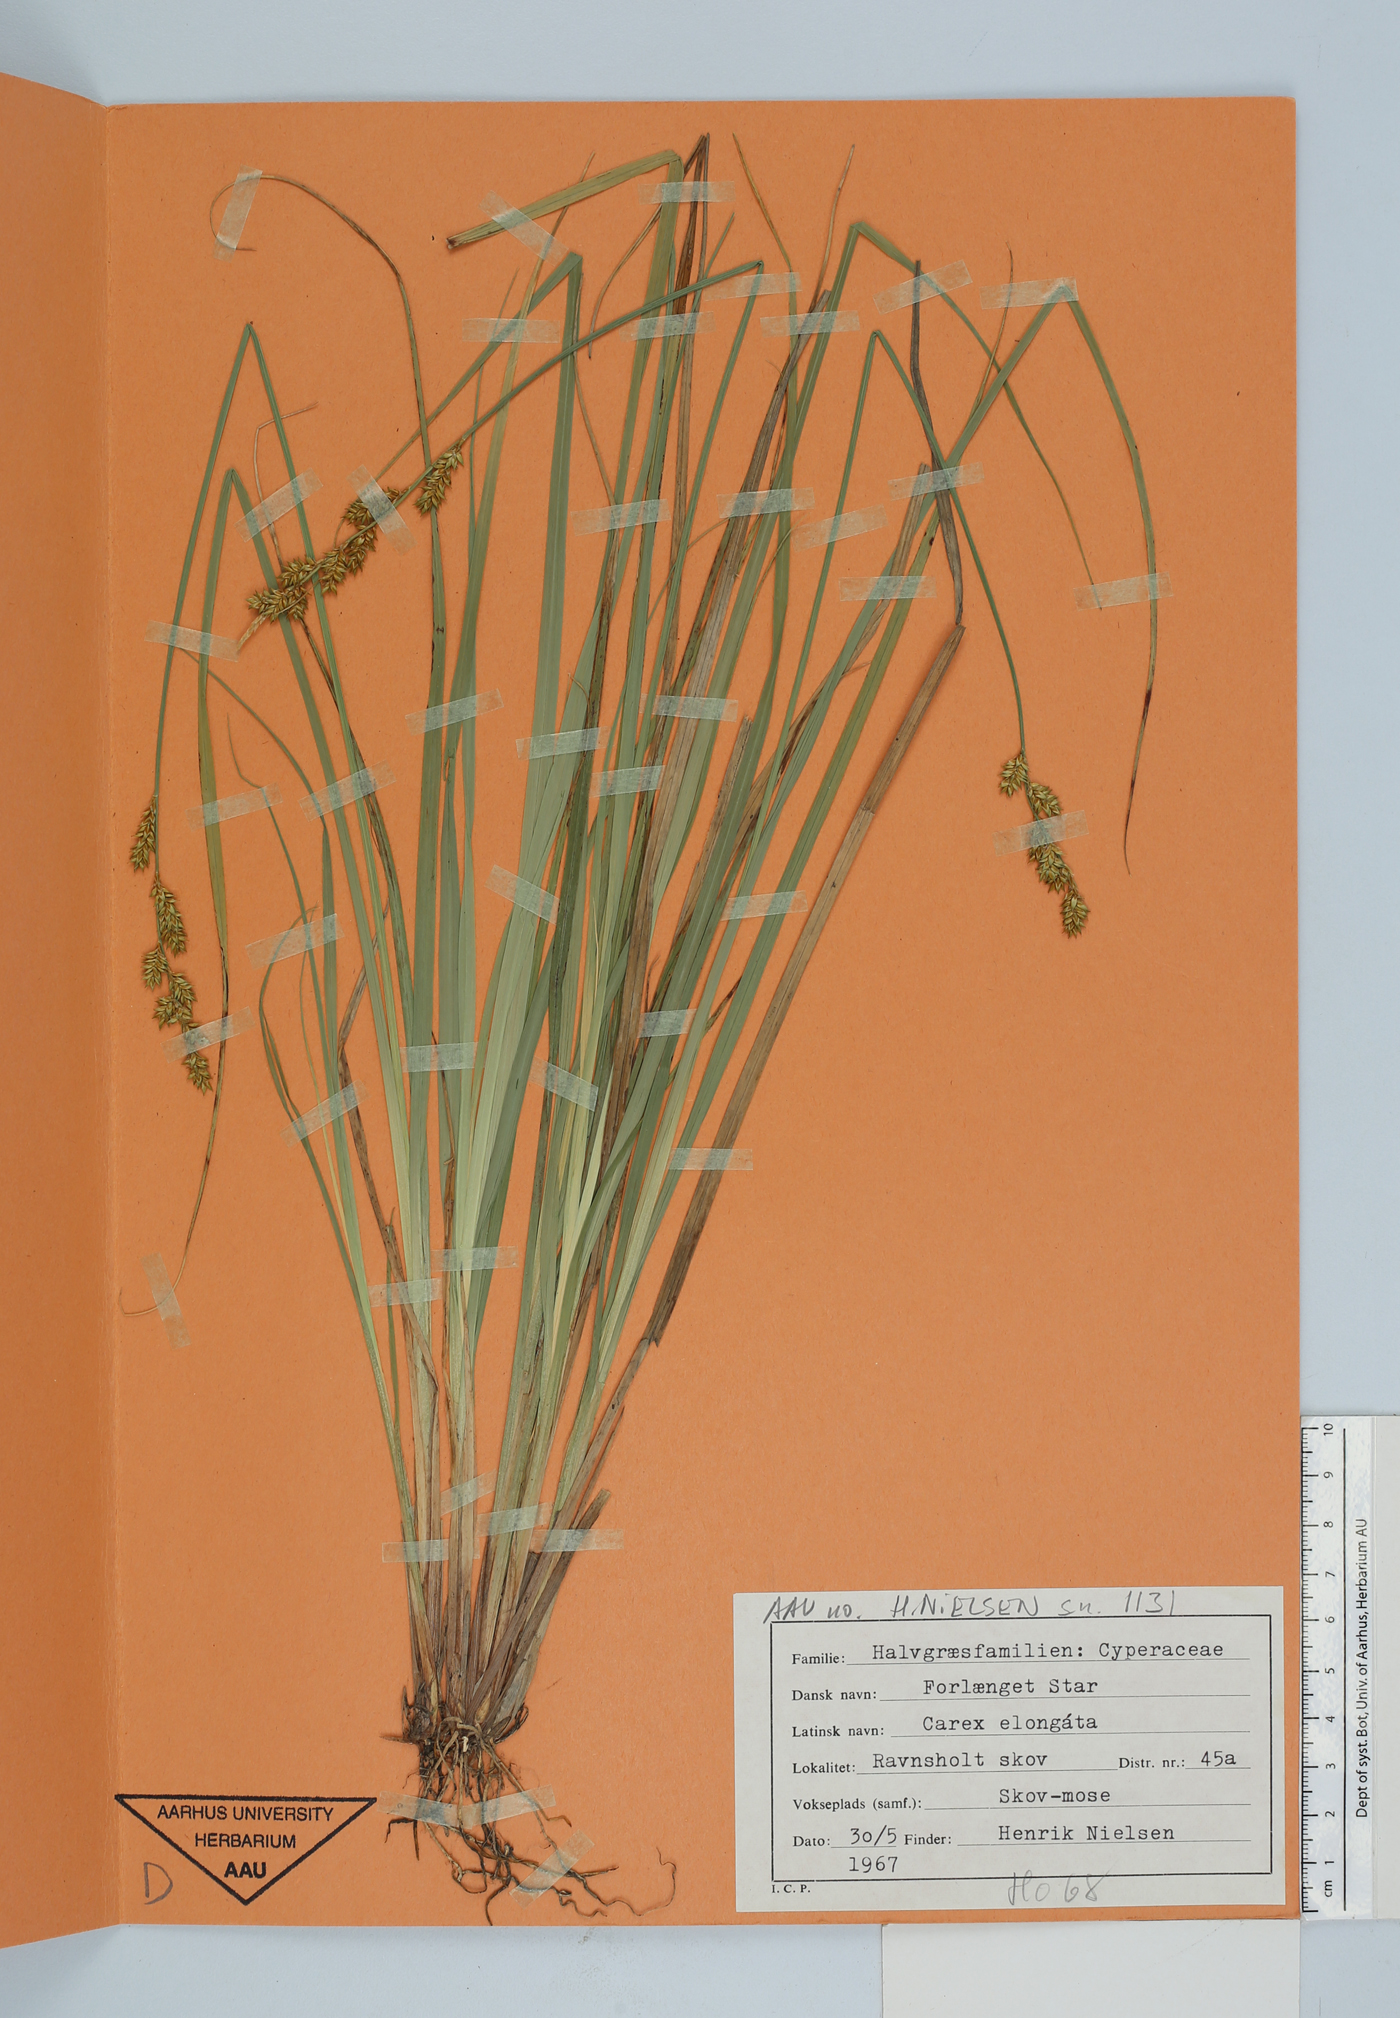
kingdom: Plantae
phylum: Tracheophyta
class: Liliopsida
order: Poales
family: Cyperaceae
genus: Carex
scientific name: Carex elongata
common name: Elongated sedge
